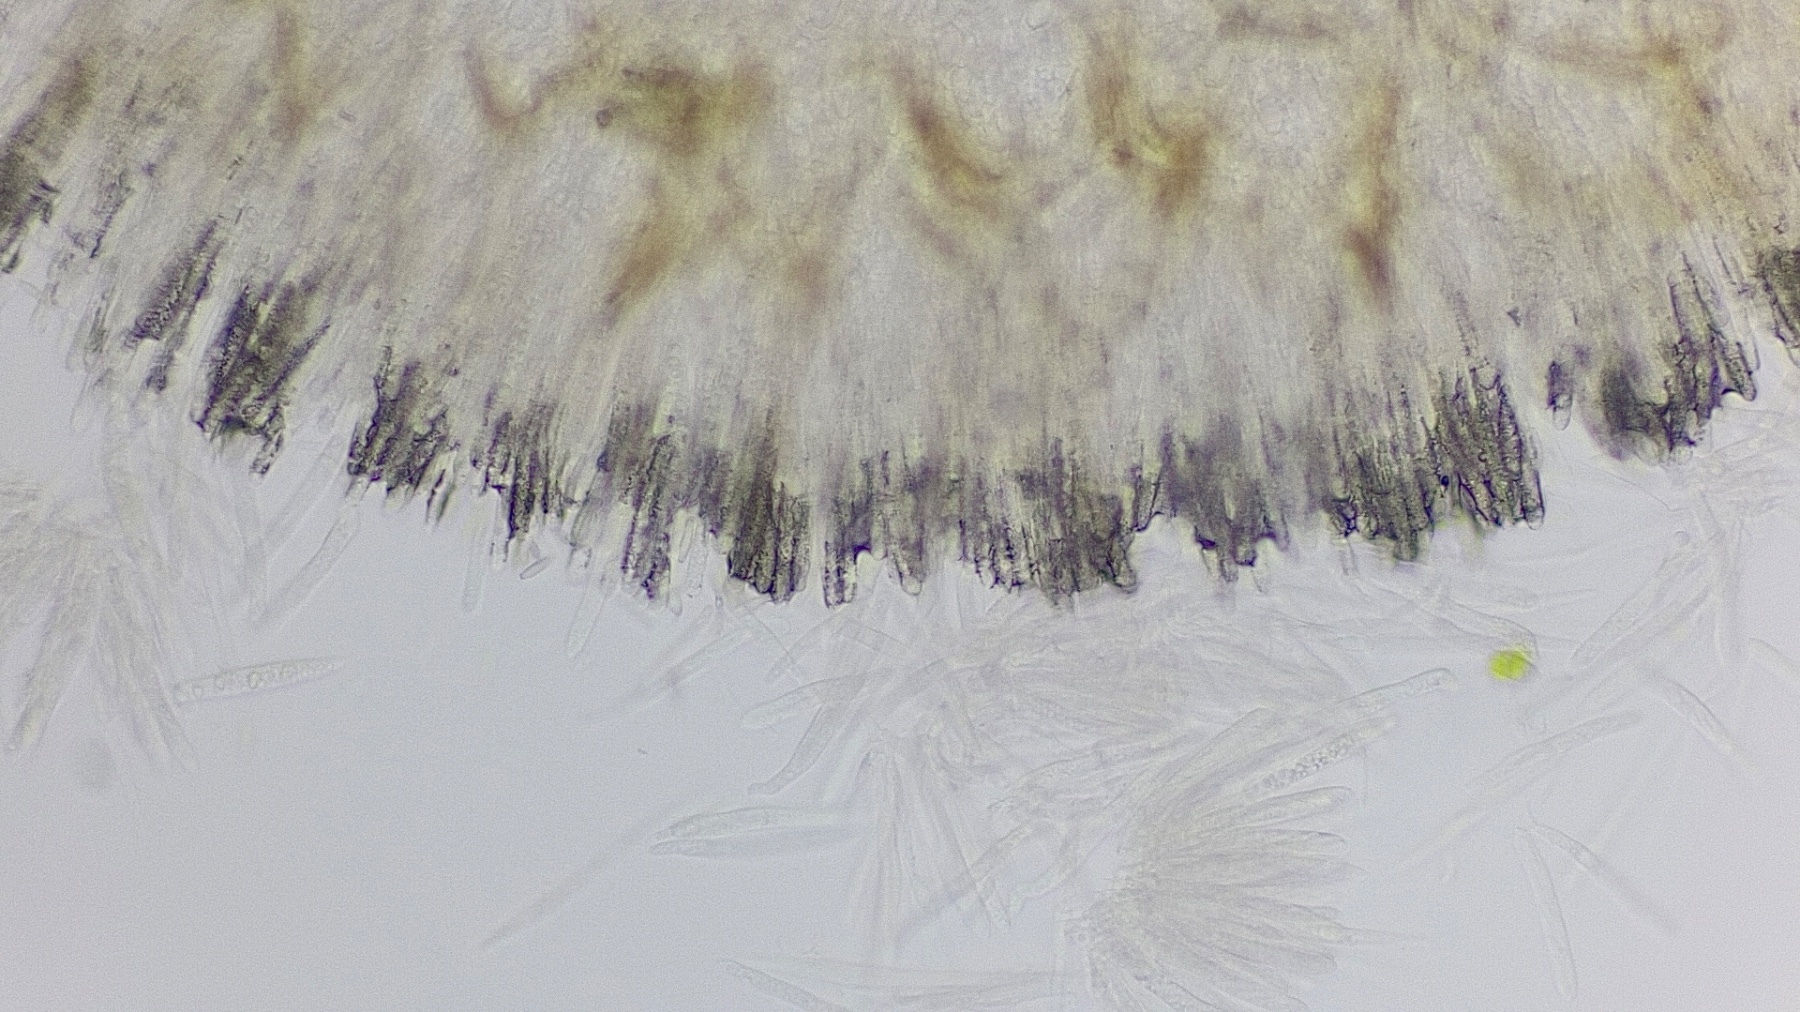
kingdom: Fungi
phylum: Ascomycota
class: Leotiomycetes
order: Helotiales
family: Lachnaceae
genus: Lachnum
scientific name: Lachnum controversum
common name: tagrør-frynseskive
